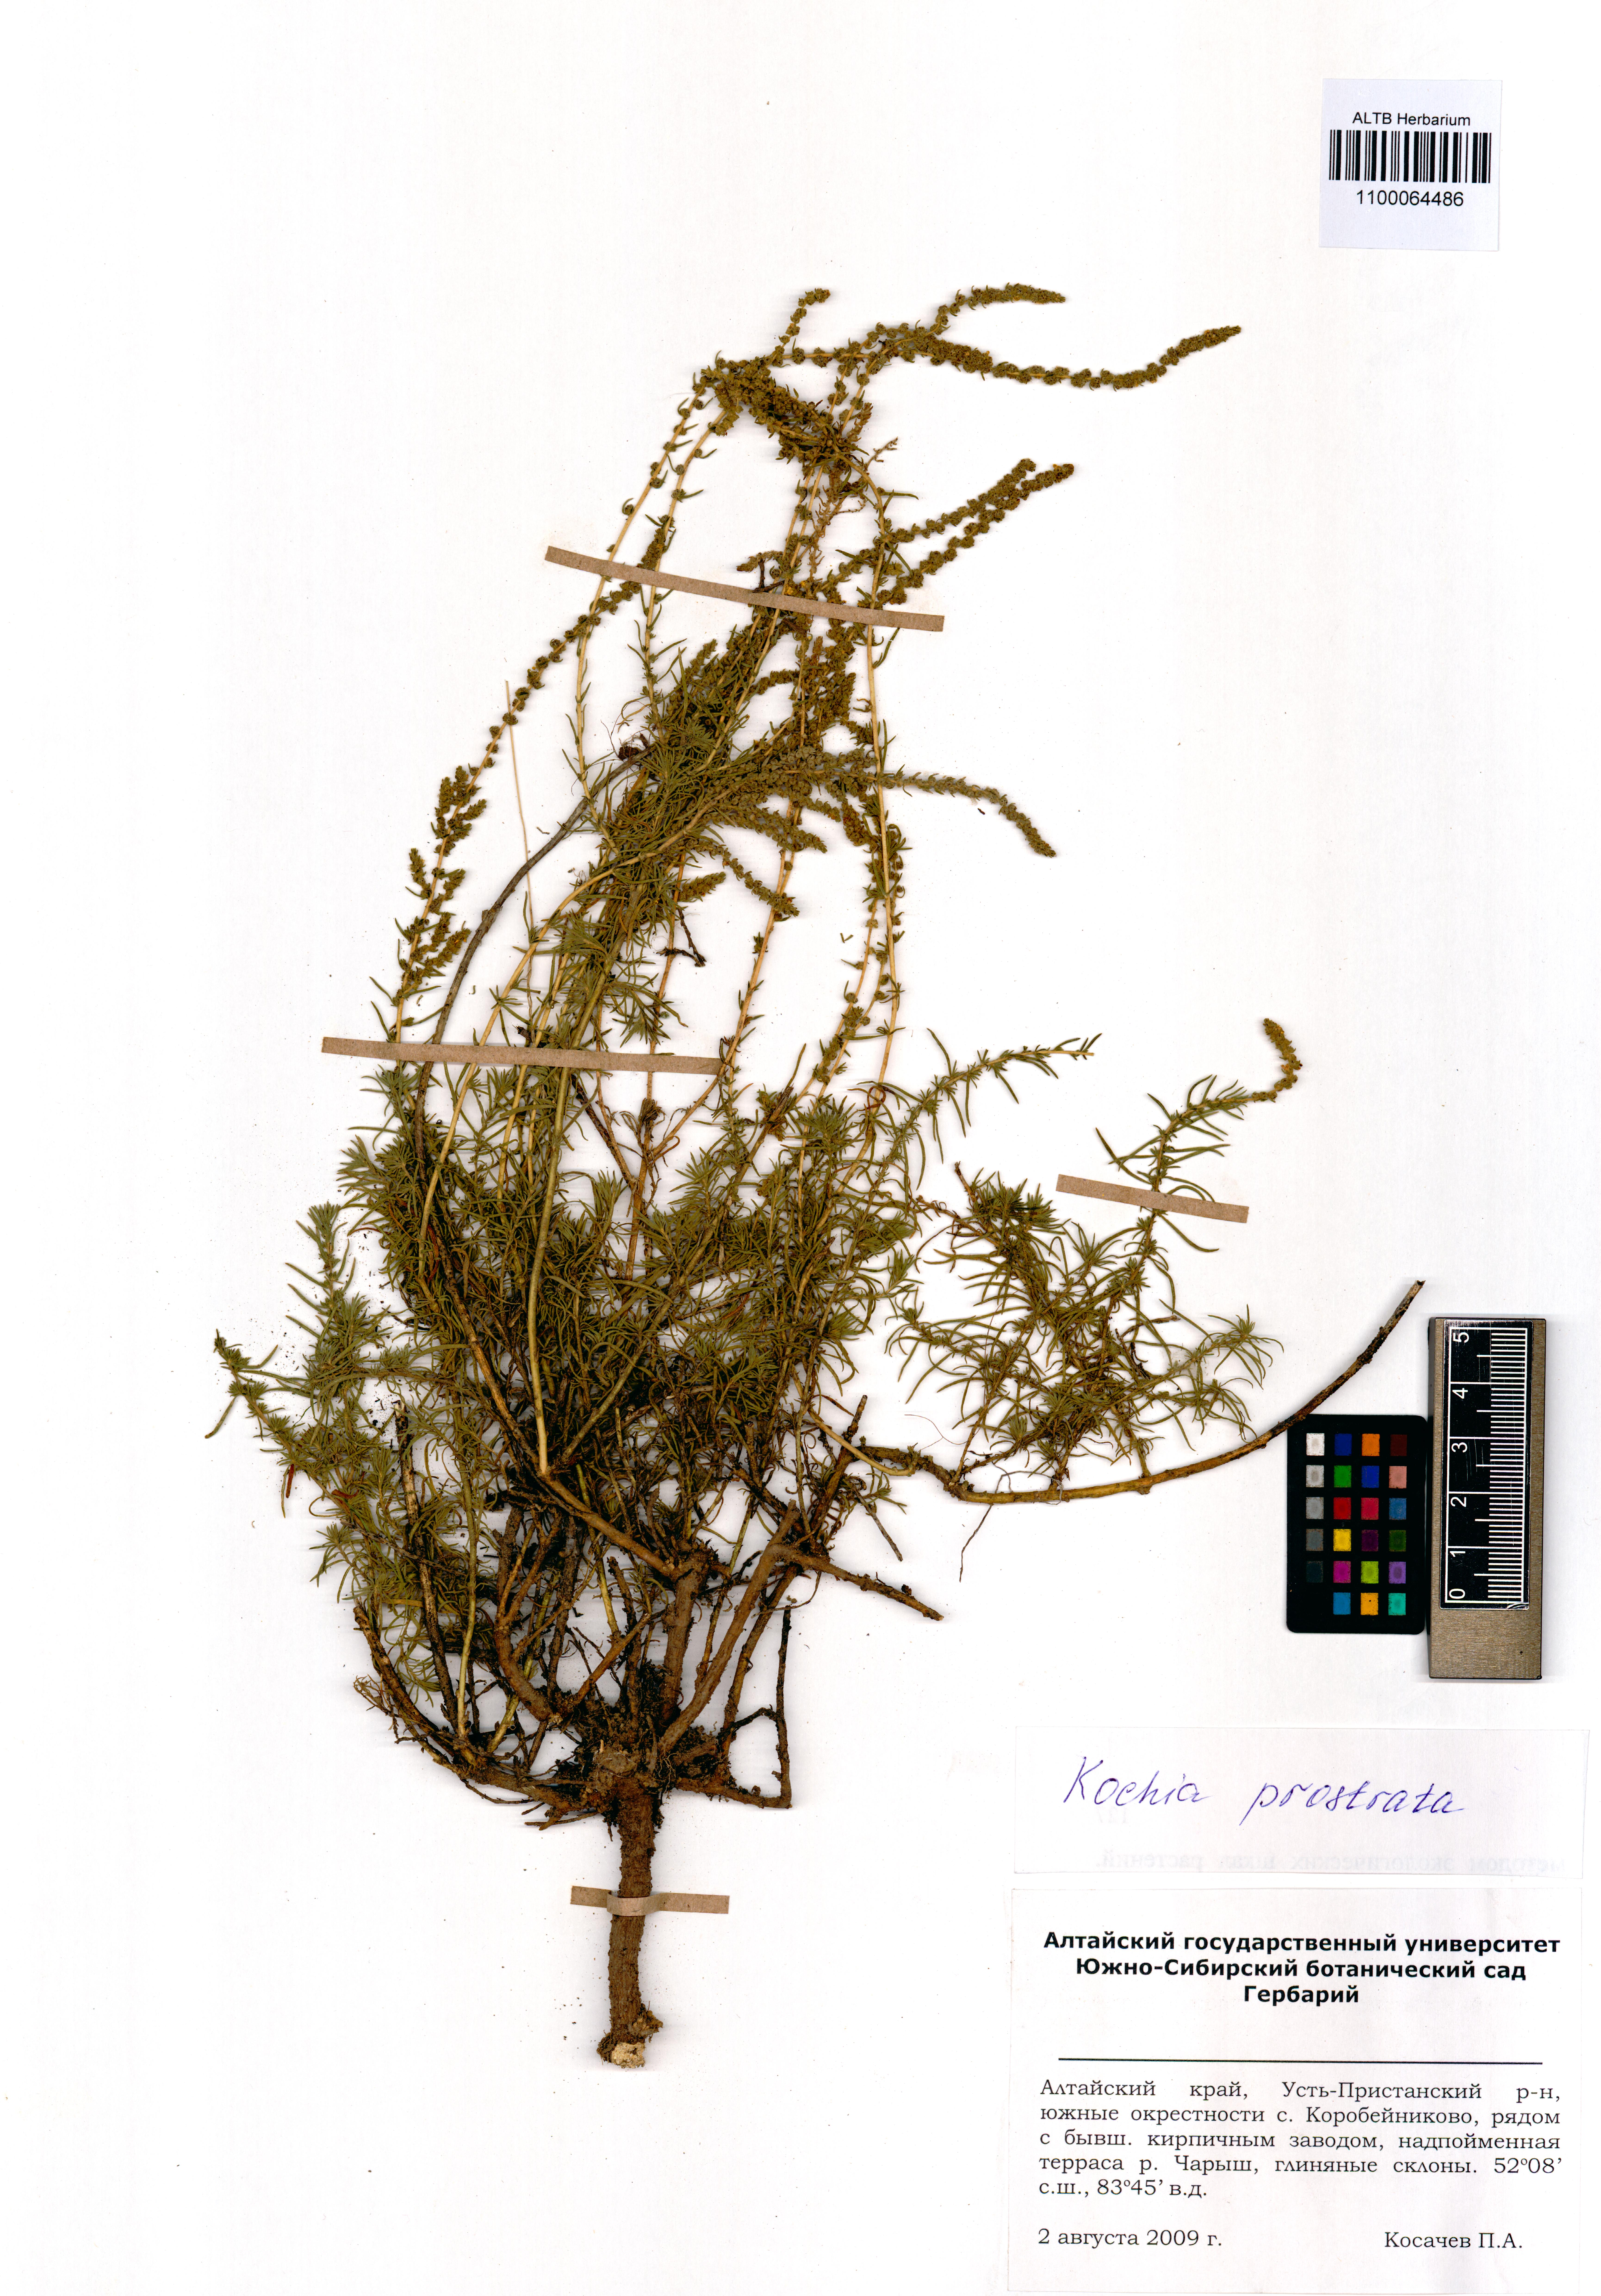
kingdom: Plantae
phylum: Tracheophyta
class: Magnoliopsida
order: Caryophyllales
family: Amaranthaceae
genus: Bassia
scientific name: Bassia prostrata
